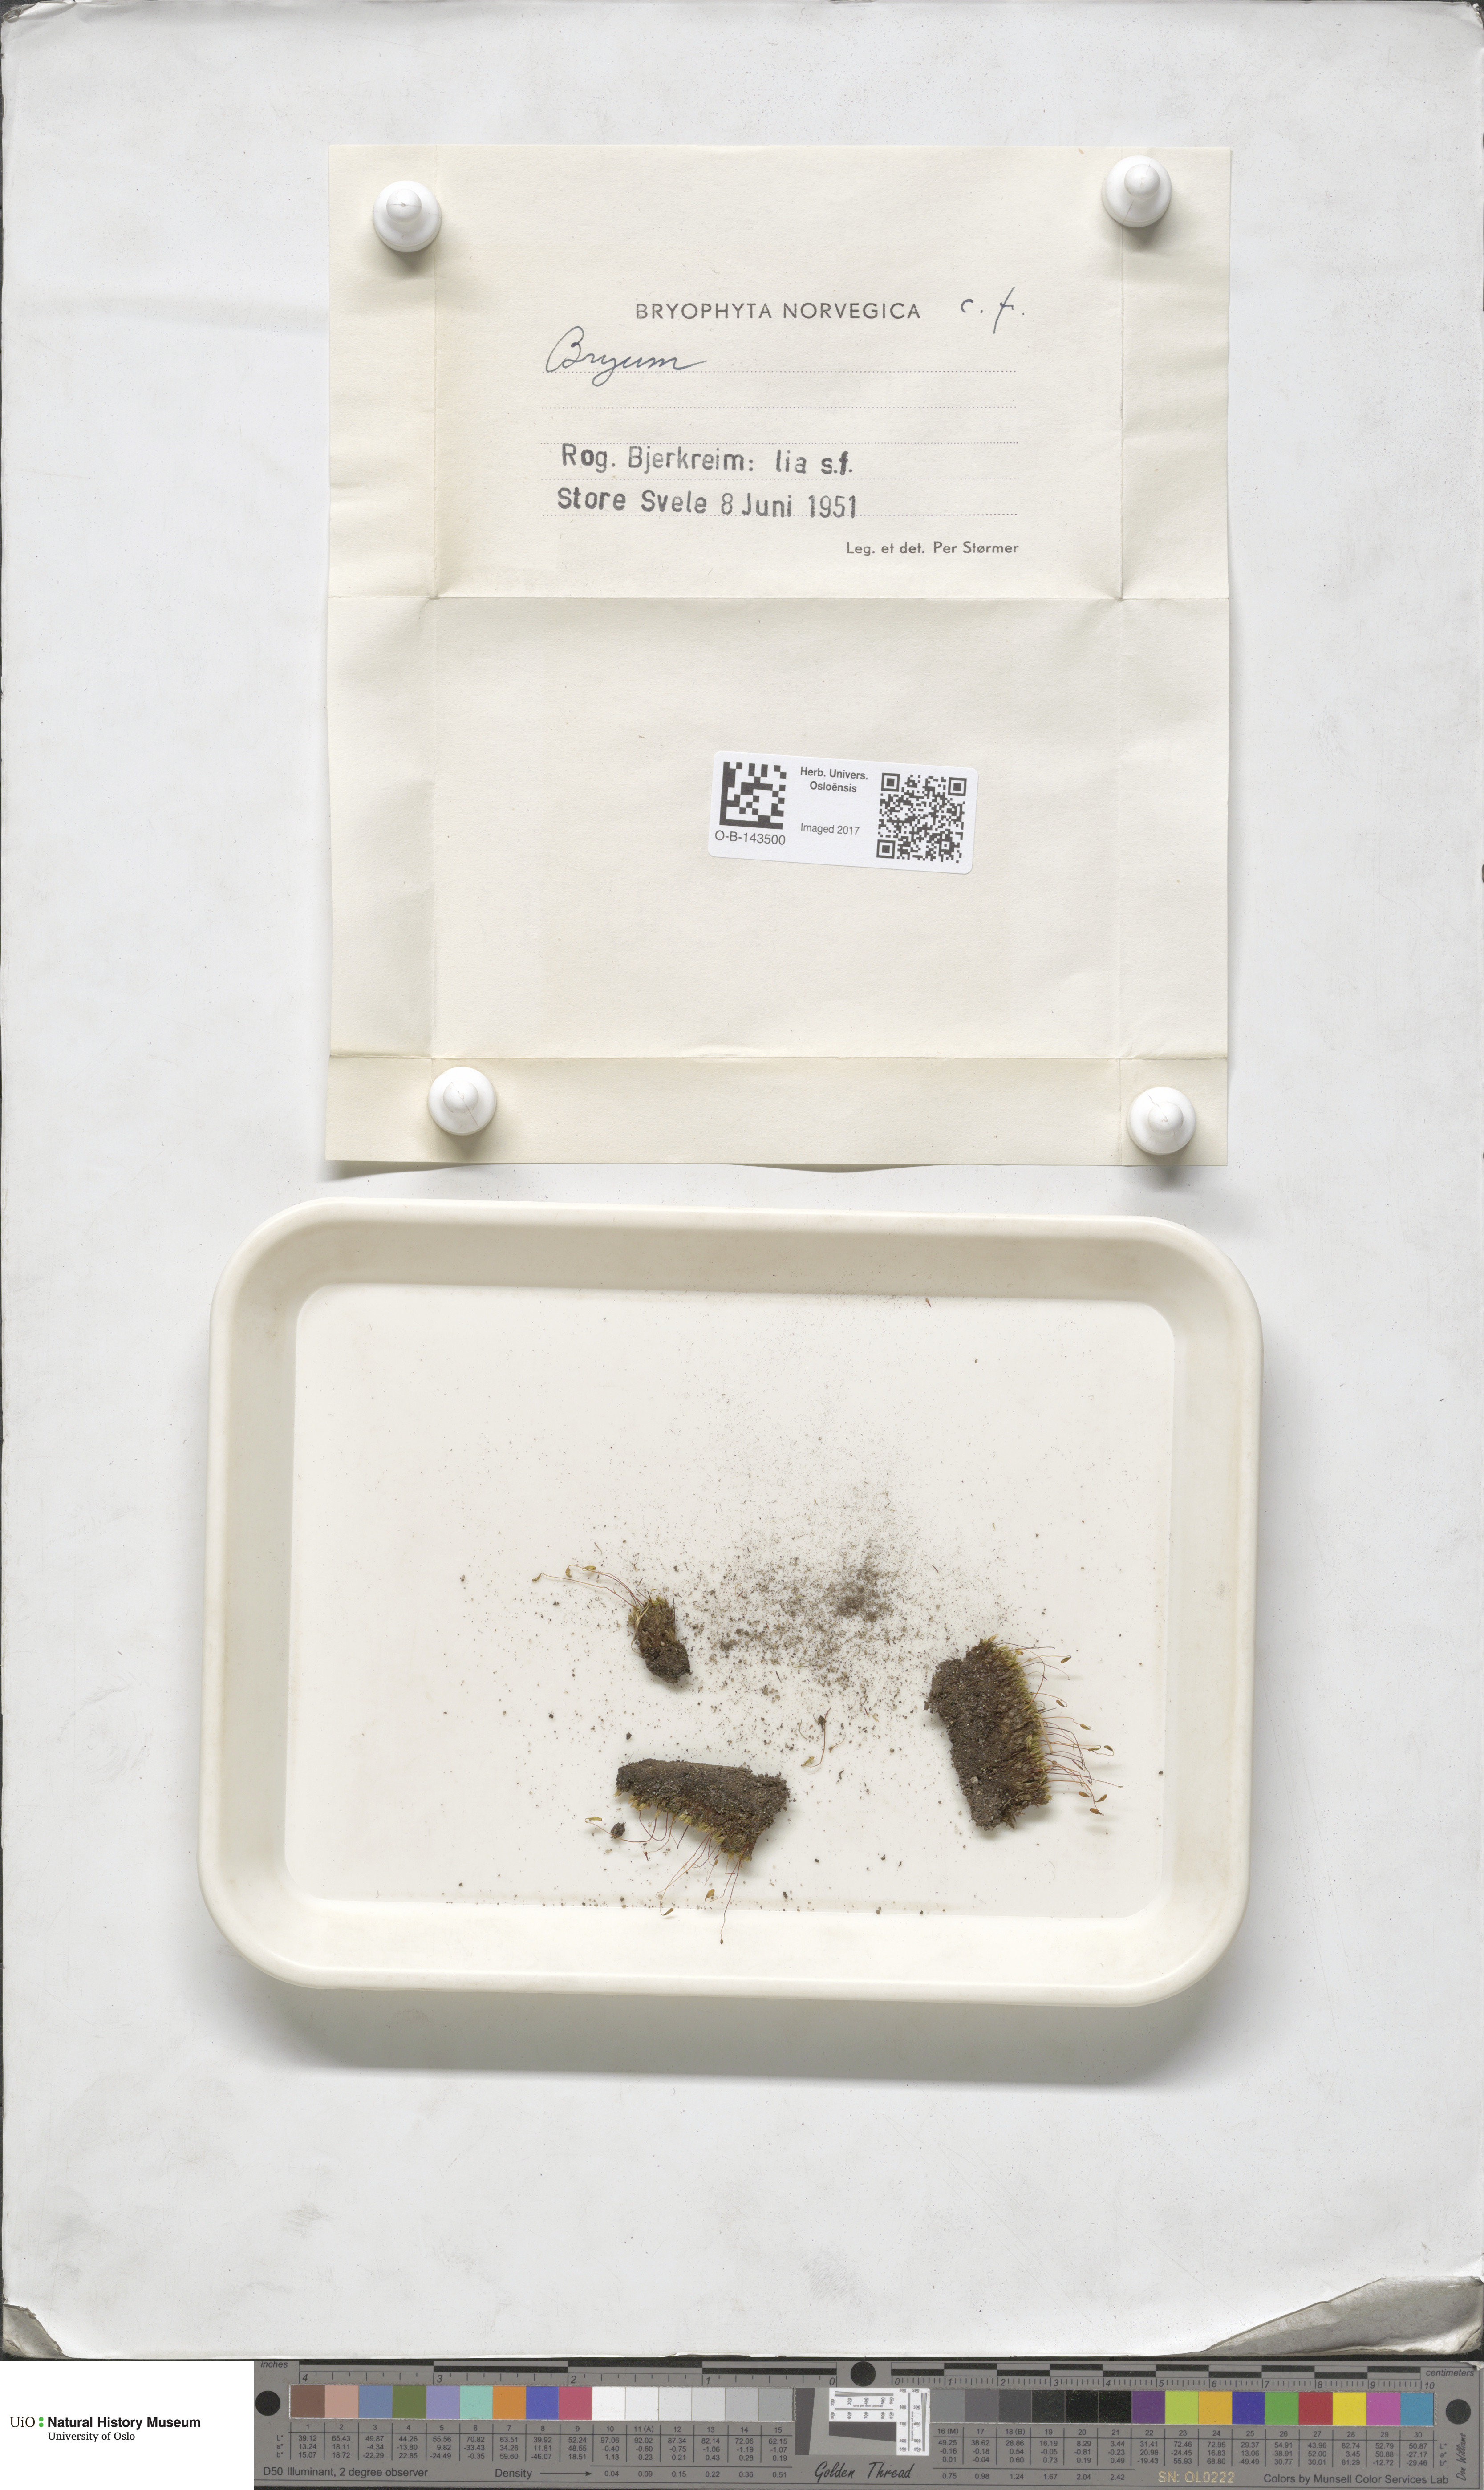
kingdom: Plantae
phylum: Bryophyta
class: Bryopsida
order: Bryales
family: Bryaceae
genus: Bryum
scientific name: Bryum
